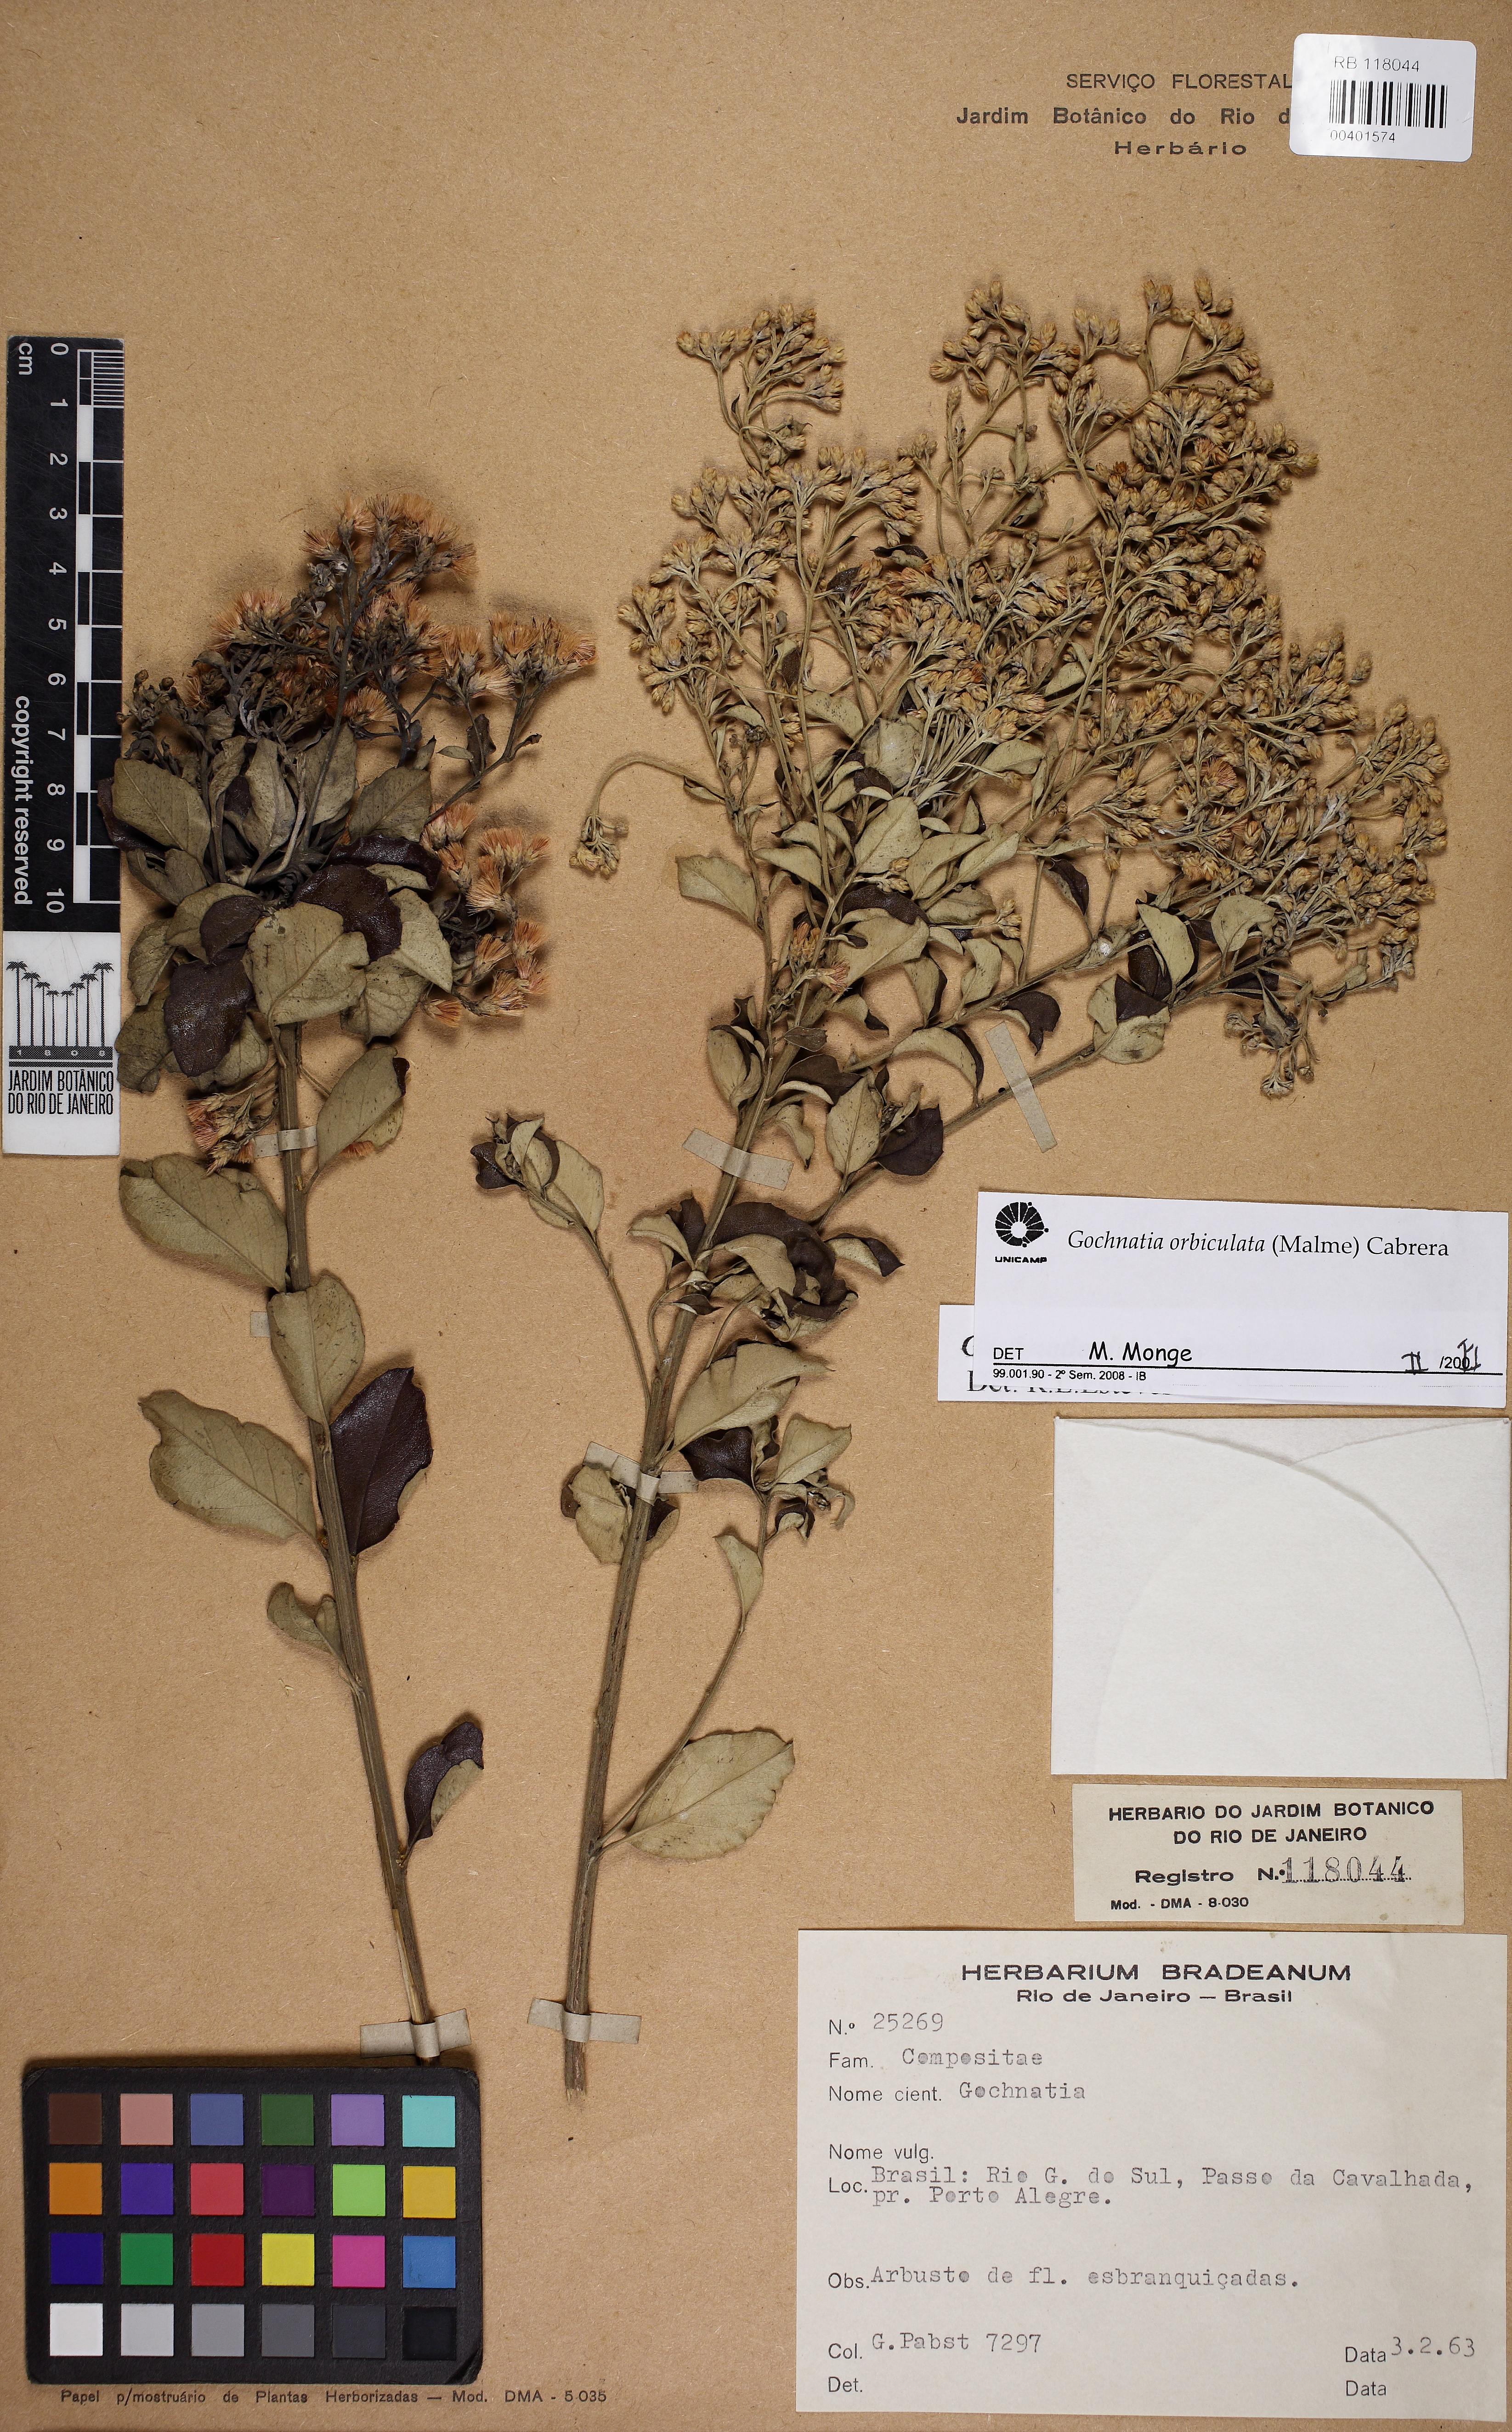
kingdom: Plantae
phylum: Tracheophyta
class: Magnoliopsida
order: Asterales
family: Asteraceae
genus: Moquiniastrum
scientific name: Moquiniastrum cinereum
